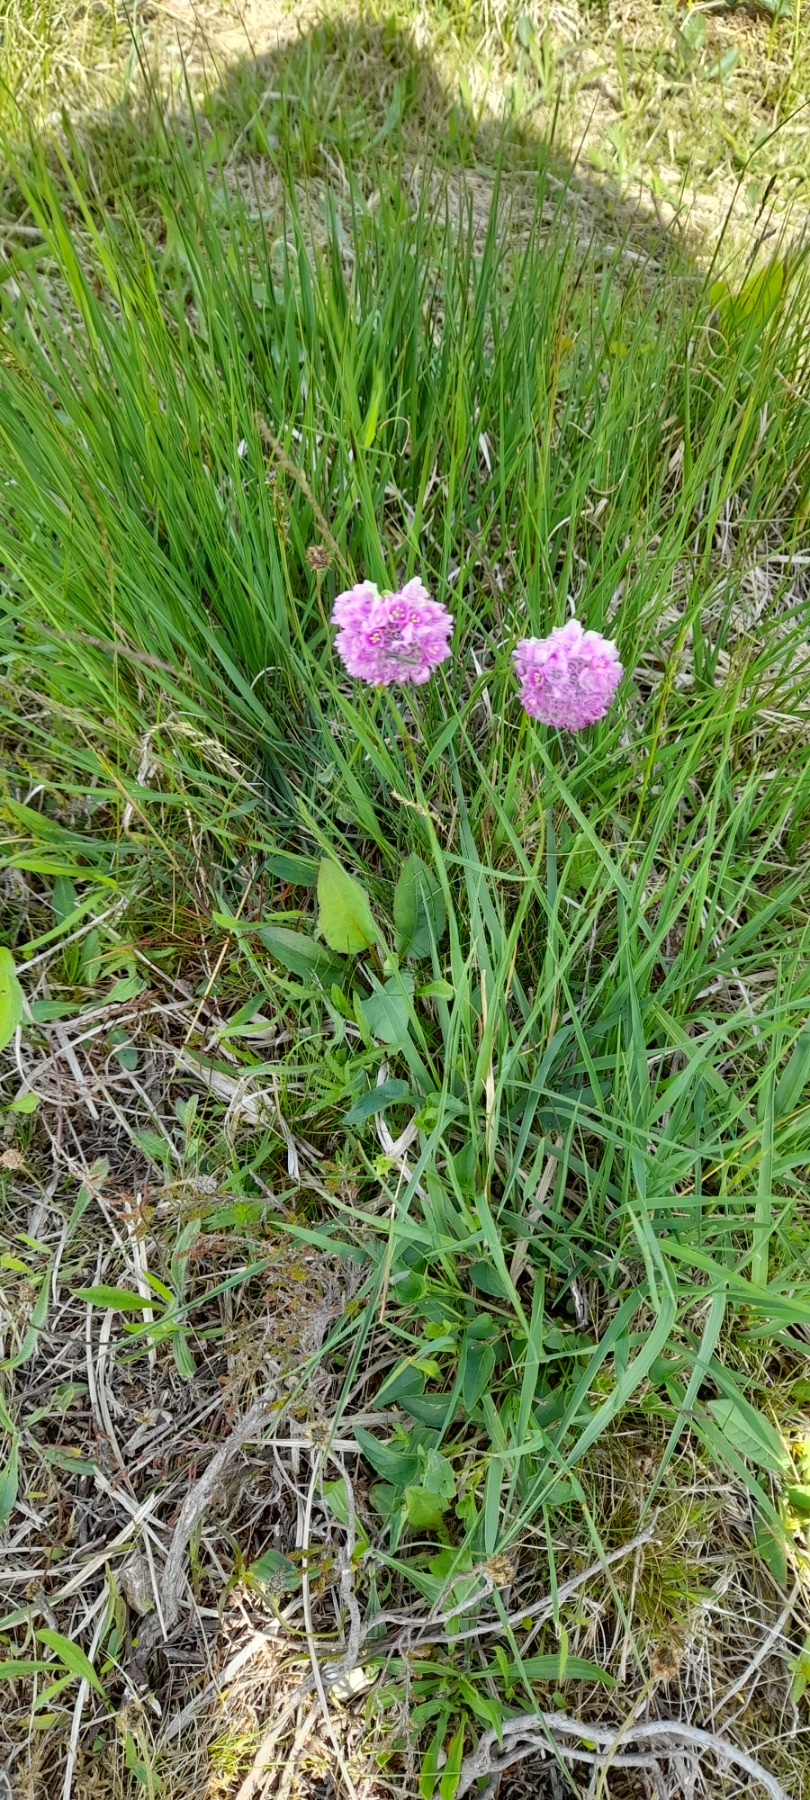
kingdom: Plantae
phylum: Tracheophyta
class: Magnoliopsida
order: Caryophyllales
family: Plumbaginaceae
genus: Armeria
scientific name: Armeria maritima
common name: Engelskgræs
